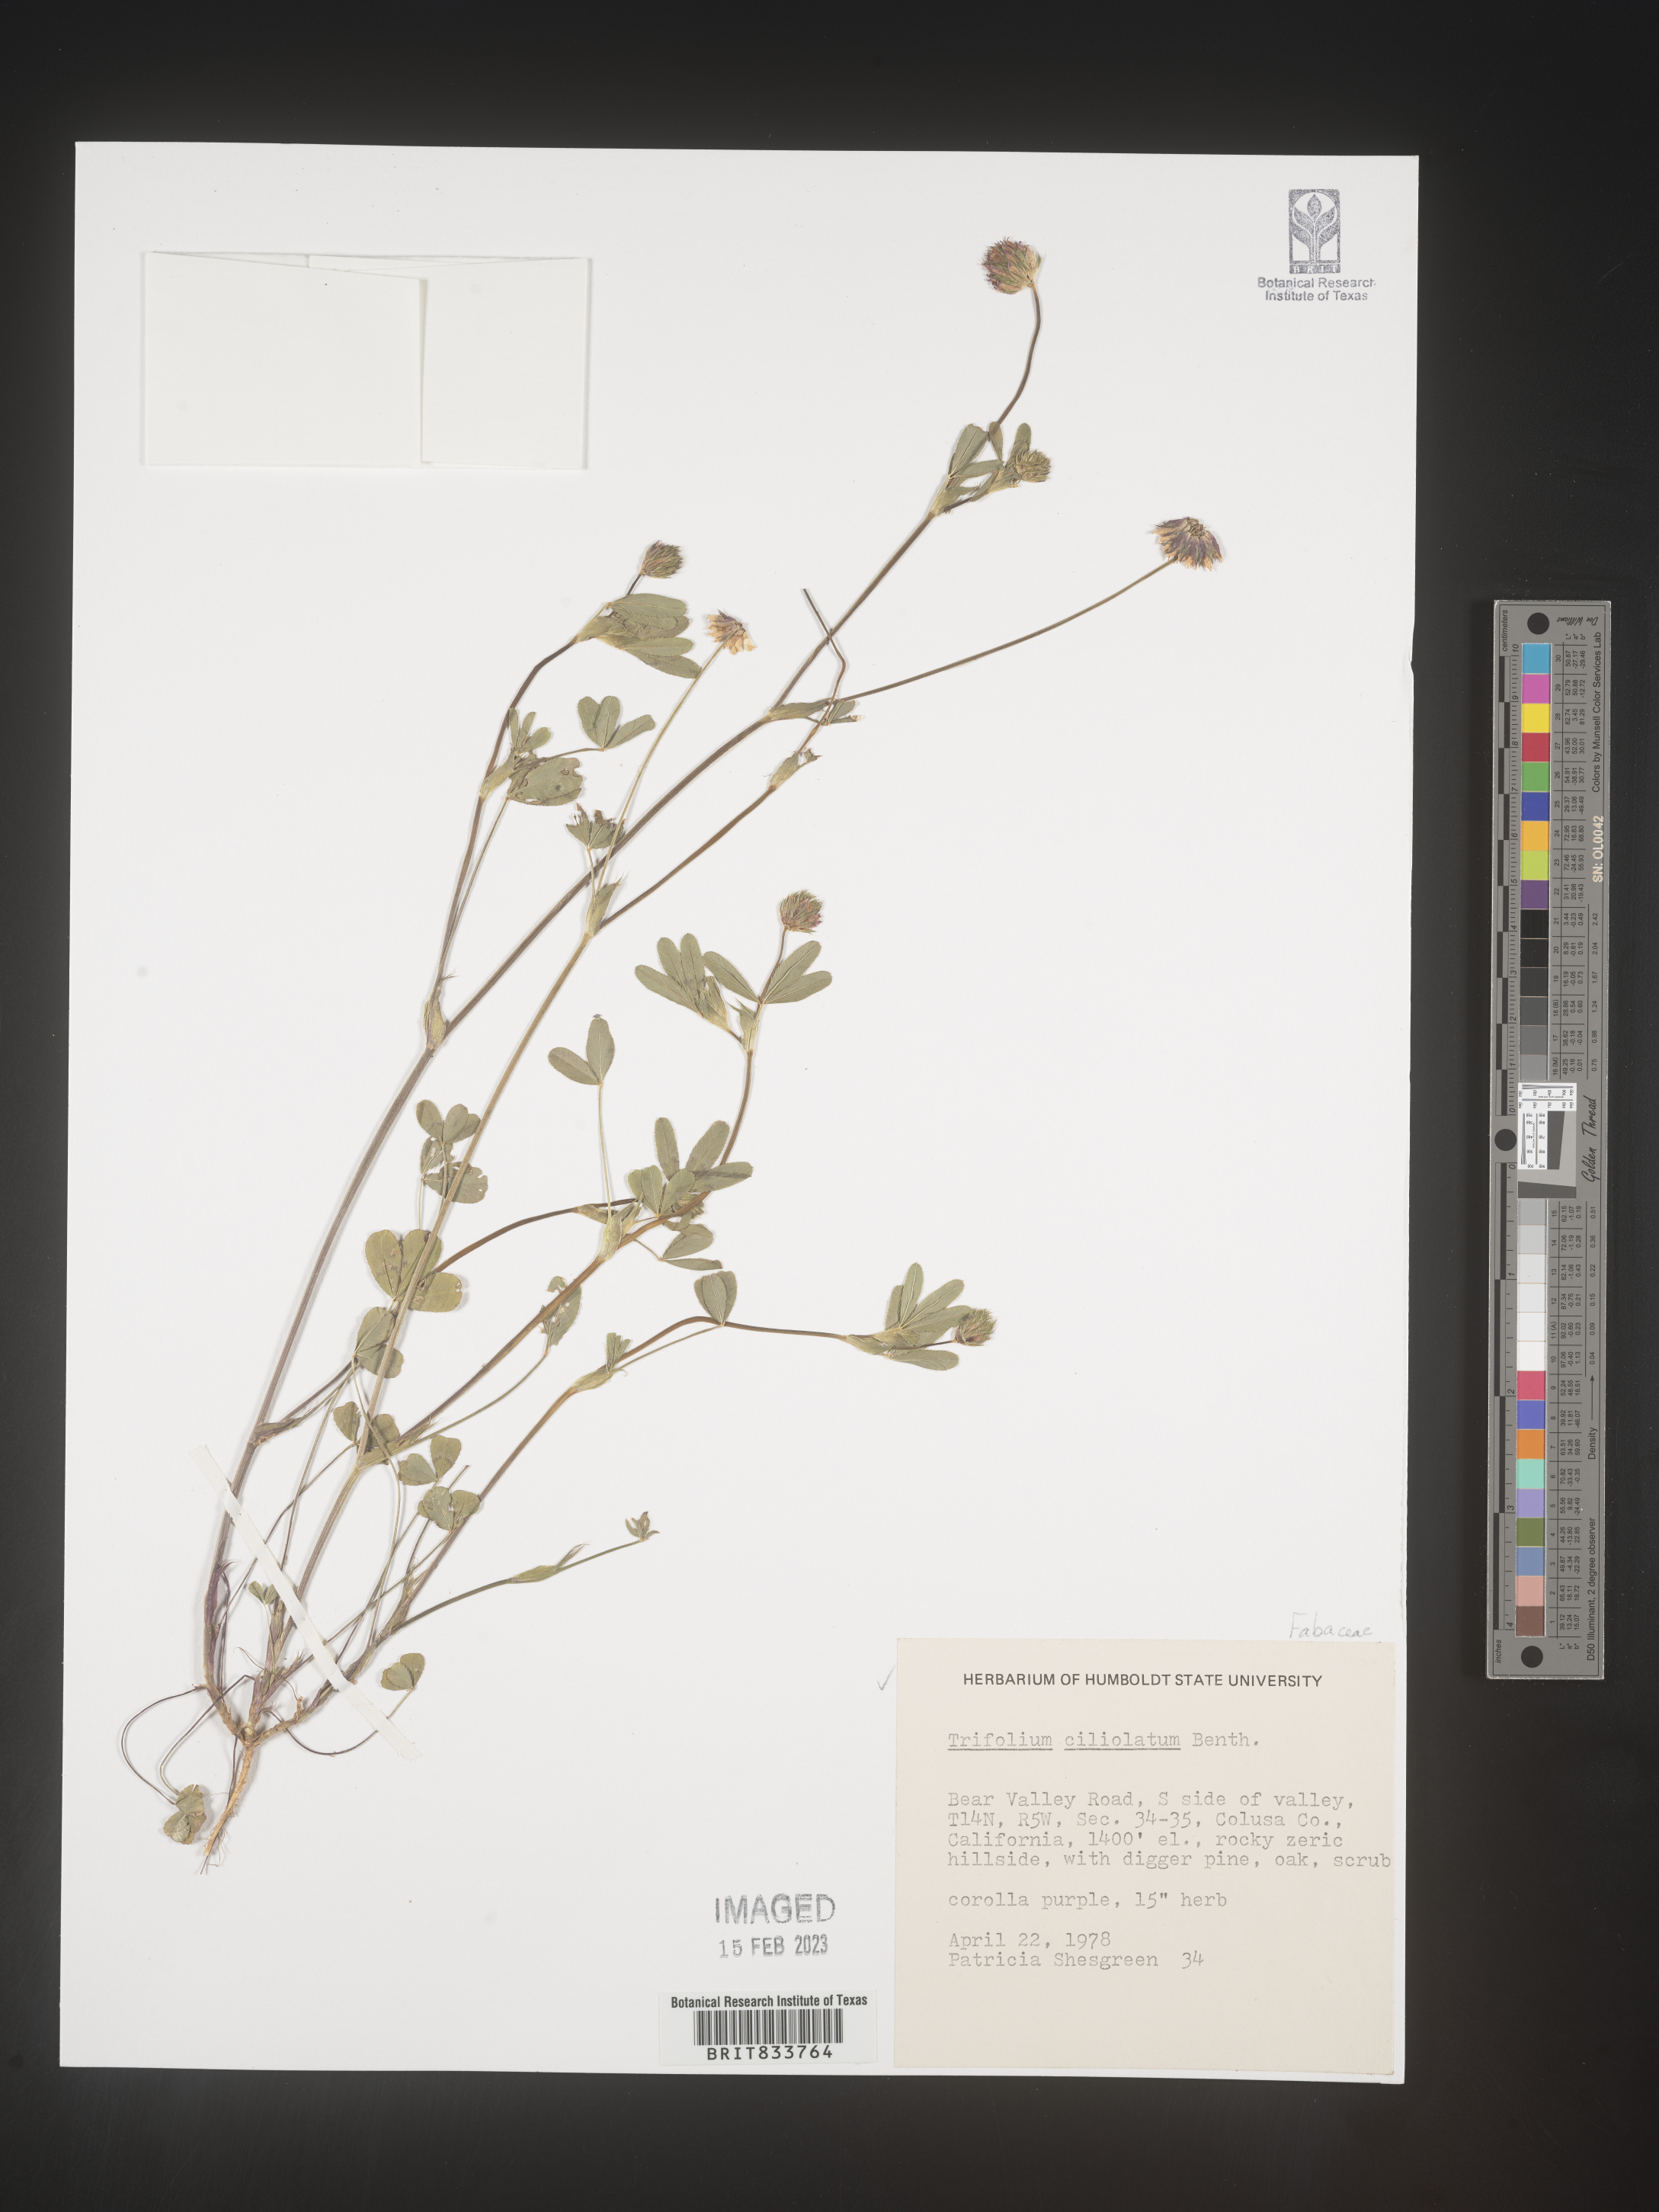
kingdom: Plantae
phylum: Tracheophyta
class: Magnoliopsida
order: Fabales
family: Fabaceae
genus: Trifolium
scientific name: Trifolium
